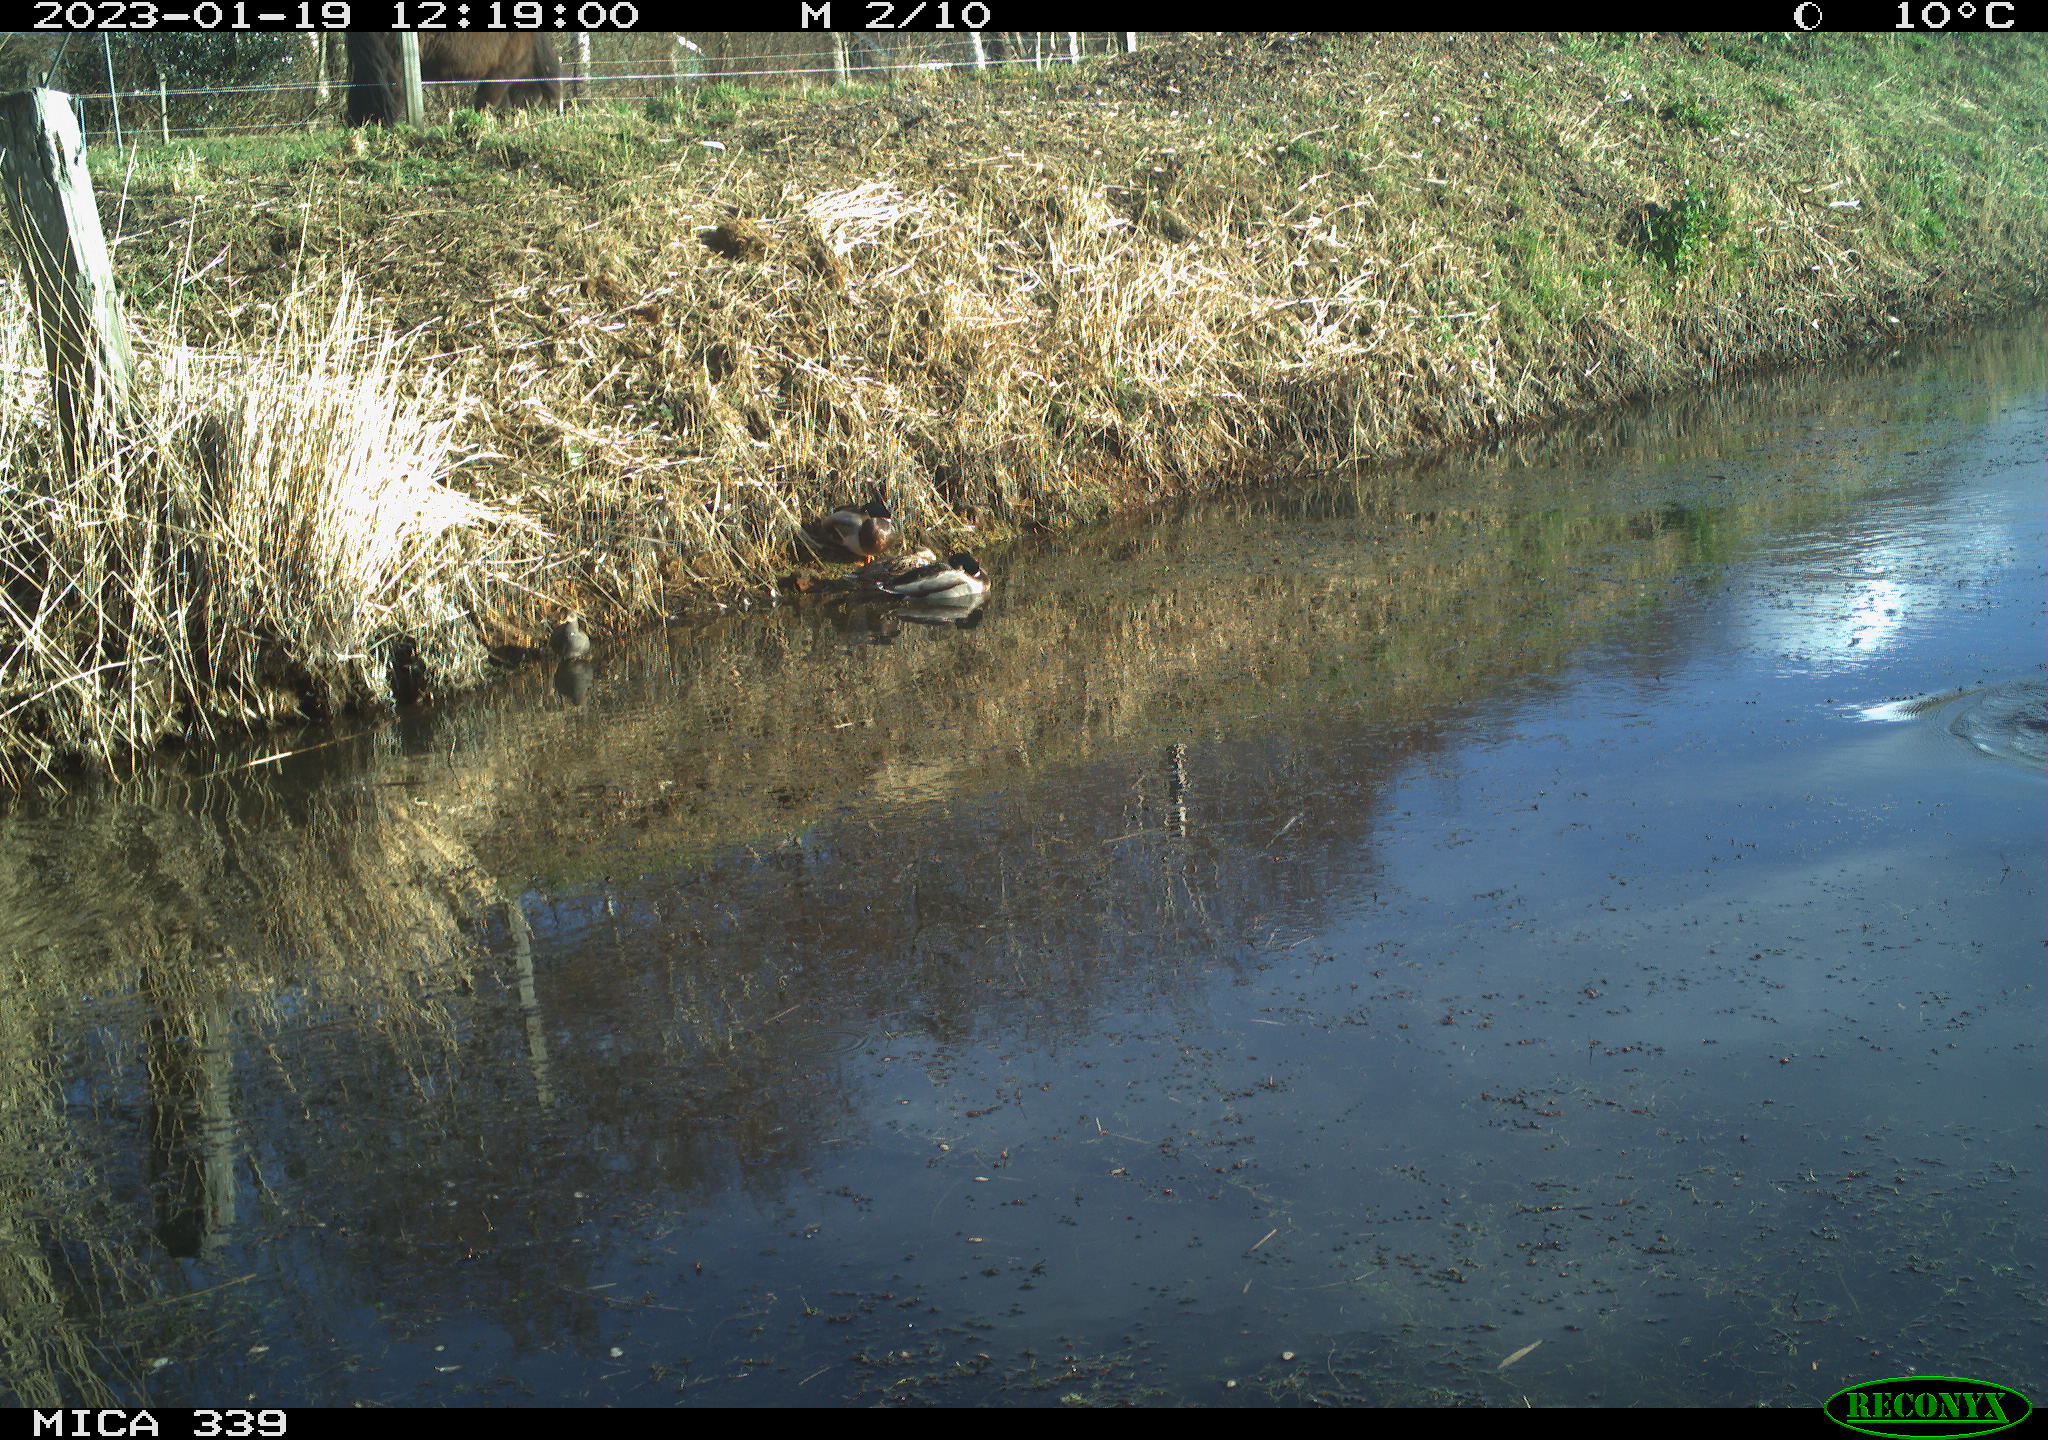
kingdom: Animalia
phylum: Chordata
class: Aves
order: Suliformes
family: Phalacrocoracidae
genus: Phalacrocorax
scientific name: Phalacrocorax carbo
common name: Great cormorant
